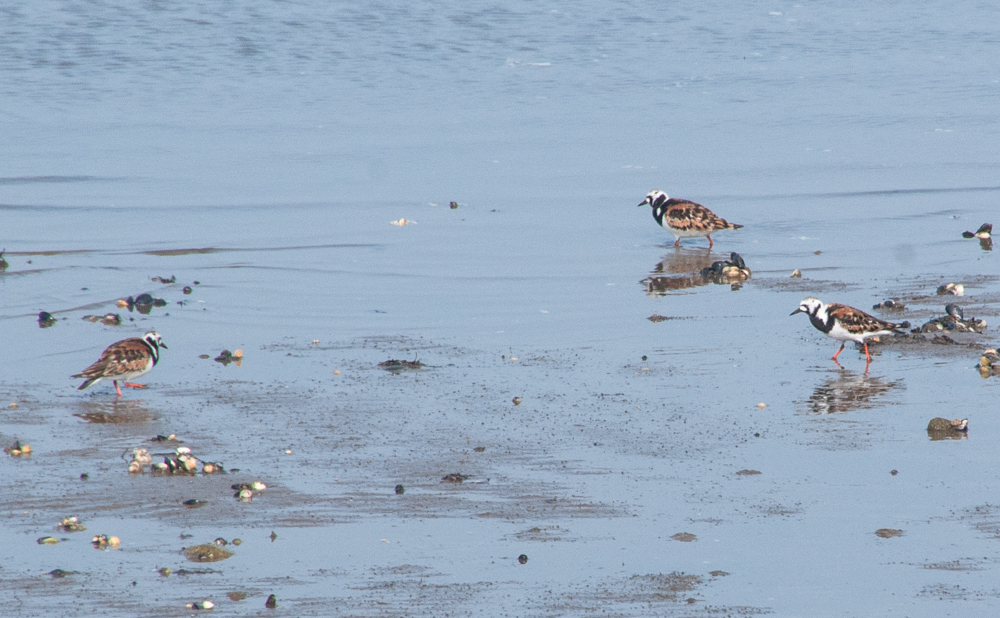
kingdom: Animalia
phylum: Chordata
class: Aves
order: Charadriiformes
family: Scolopacidae
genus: Arenaria
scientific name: Arenaria interpres
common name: Ruddy turnstone
